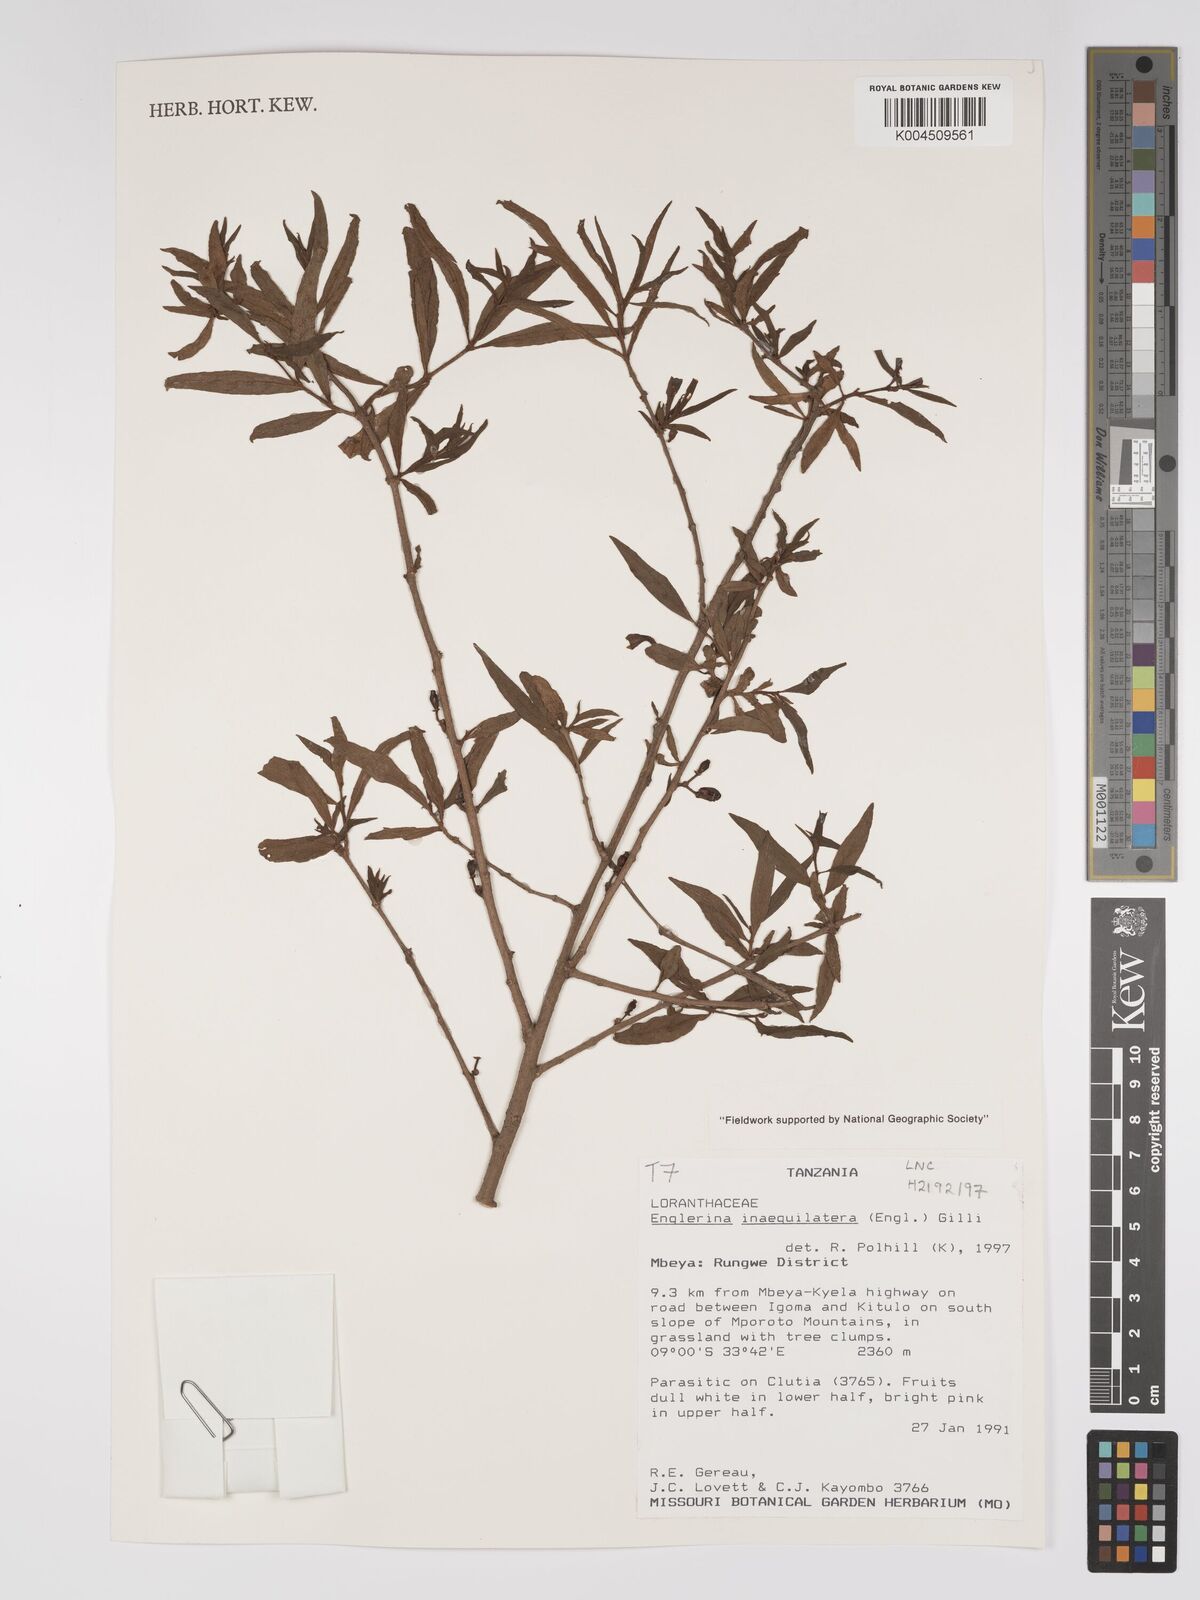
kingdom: Plantae
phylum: Tracheophyta
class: Magnoliopsida
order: Santalales
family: Loranthaceae
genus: Englerina
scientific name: Englerina inaequilatera
